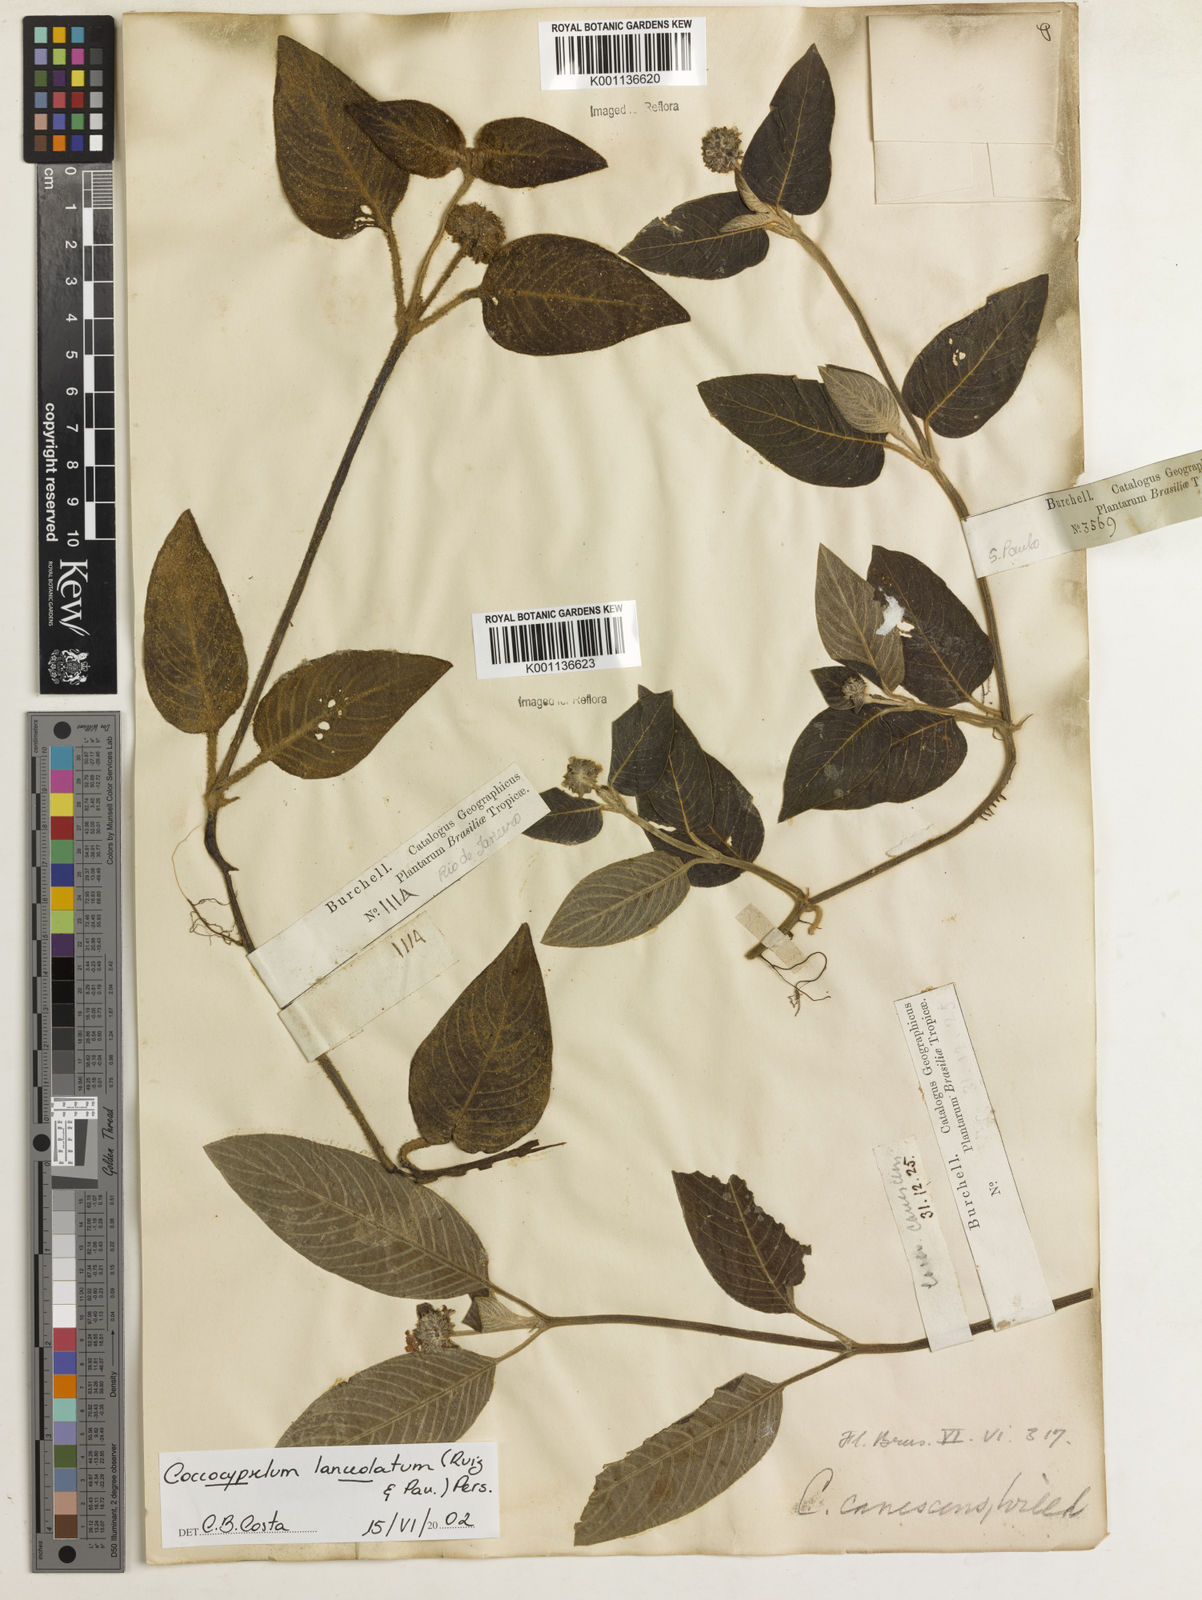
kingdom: Plantae
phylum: Tracheophyta
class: Magnoliopsida
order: Gentianales
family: Rubiaceae
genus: Coccocypselum
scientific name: Coccocypselum lanceolatum
